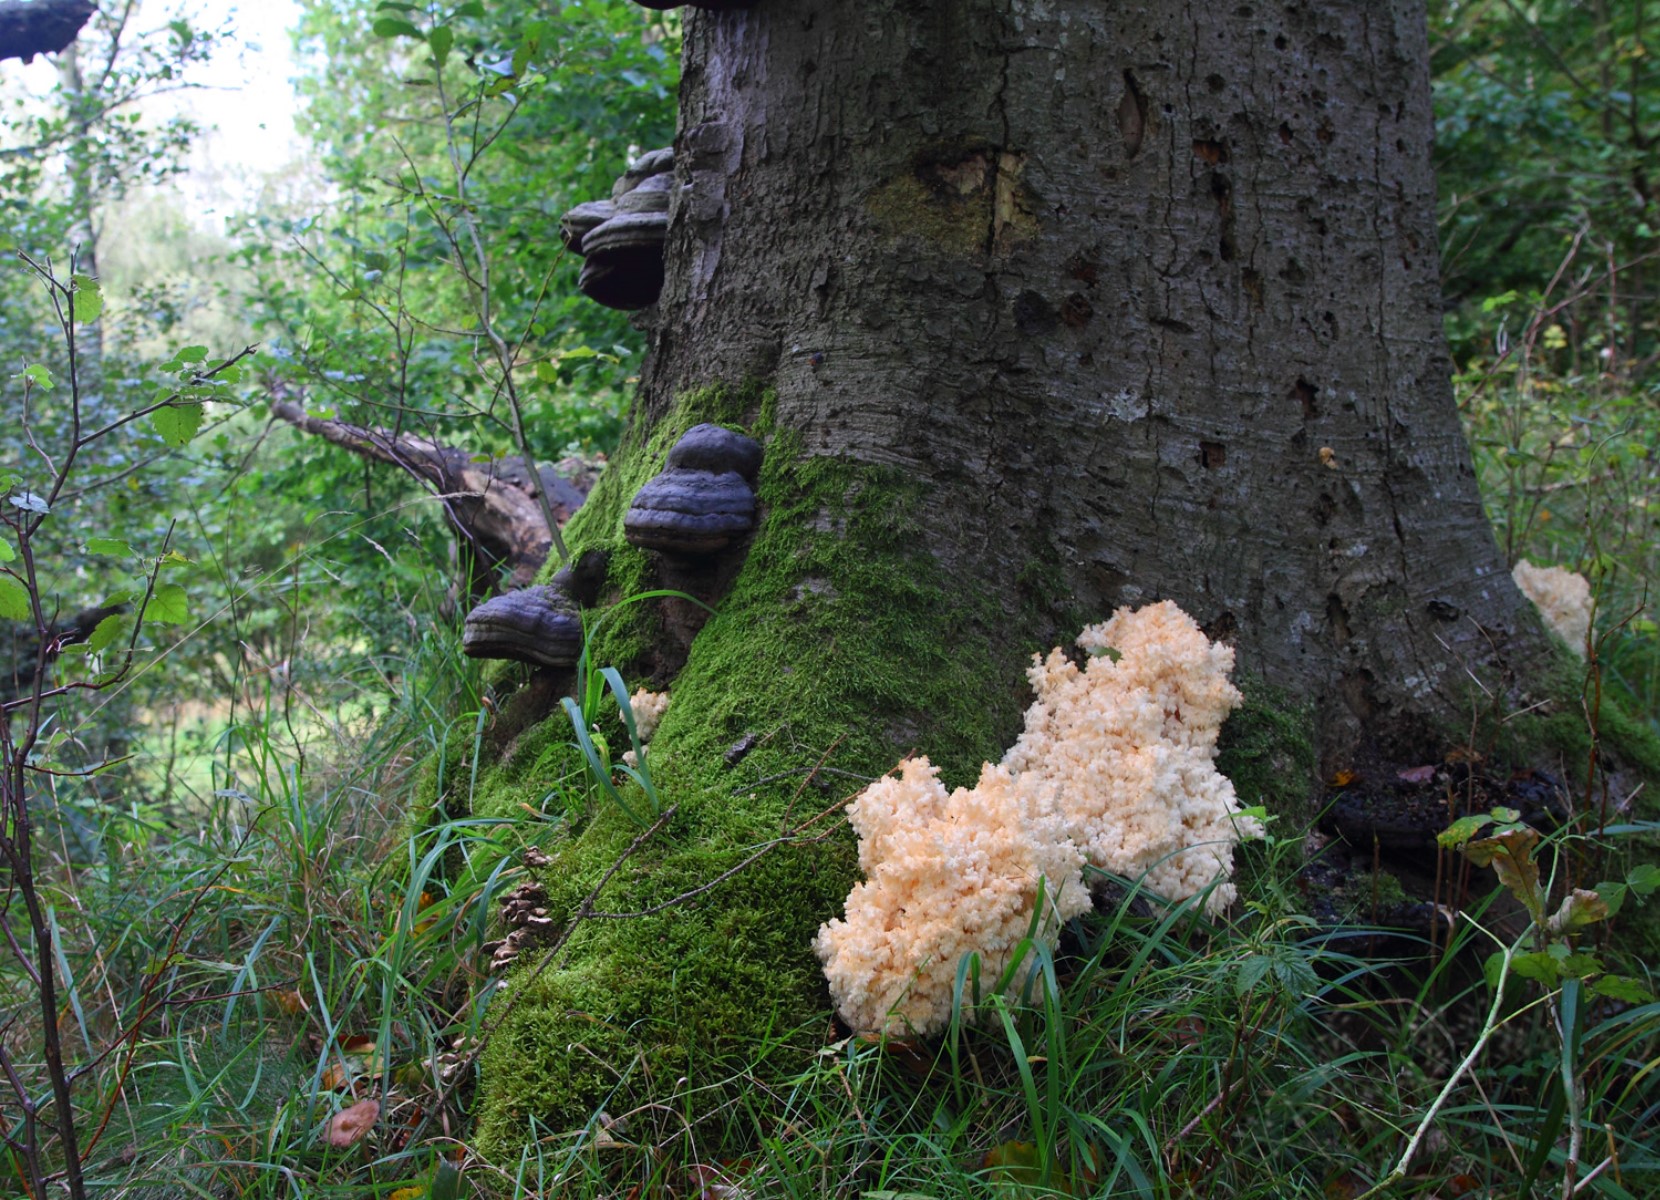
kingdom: Fungi
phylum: Basidiomycota
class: Agaricomycetes
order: Russulales
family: Hericiaceae
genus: Hericium
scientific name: Hericium coralloides
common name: koralpigsvamp
